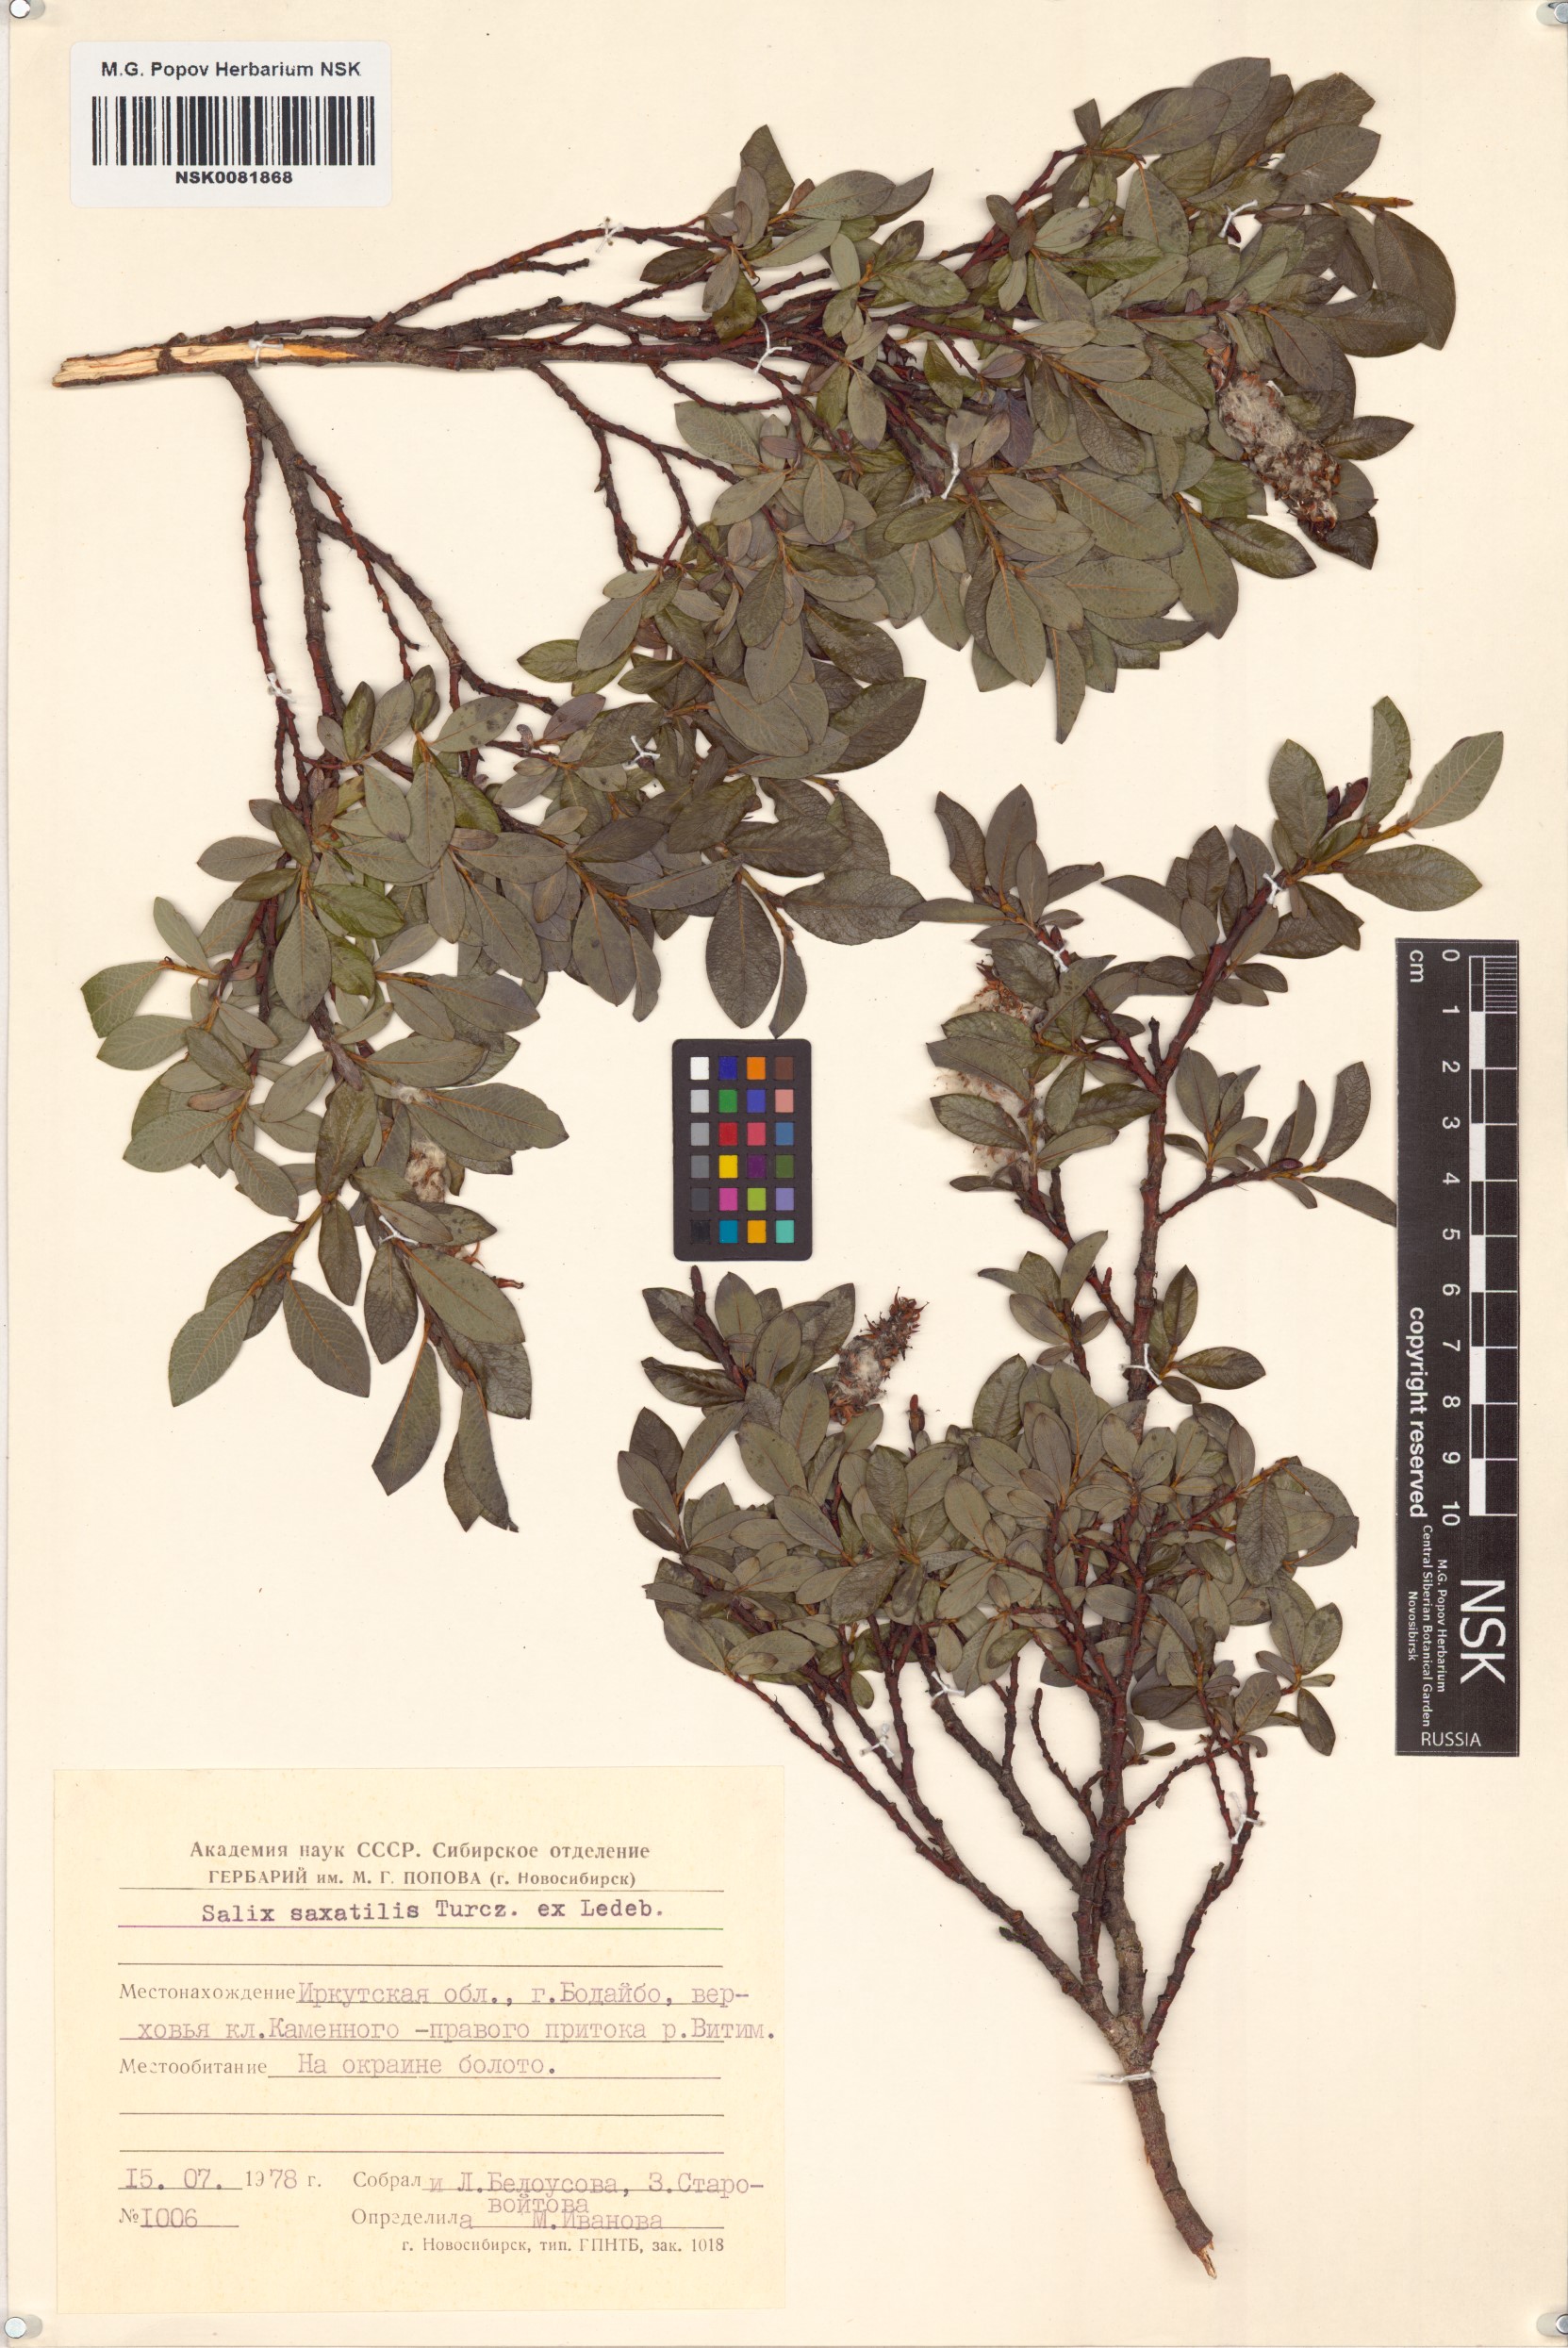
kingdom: Plantae
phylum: Tracheophyta
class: Magnoliopsida
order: Malpighiales
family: Salicaceae
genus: Salix
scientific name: Salix saxatilis
